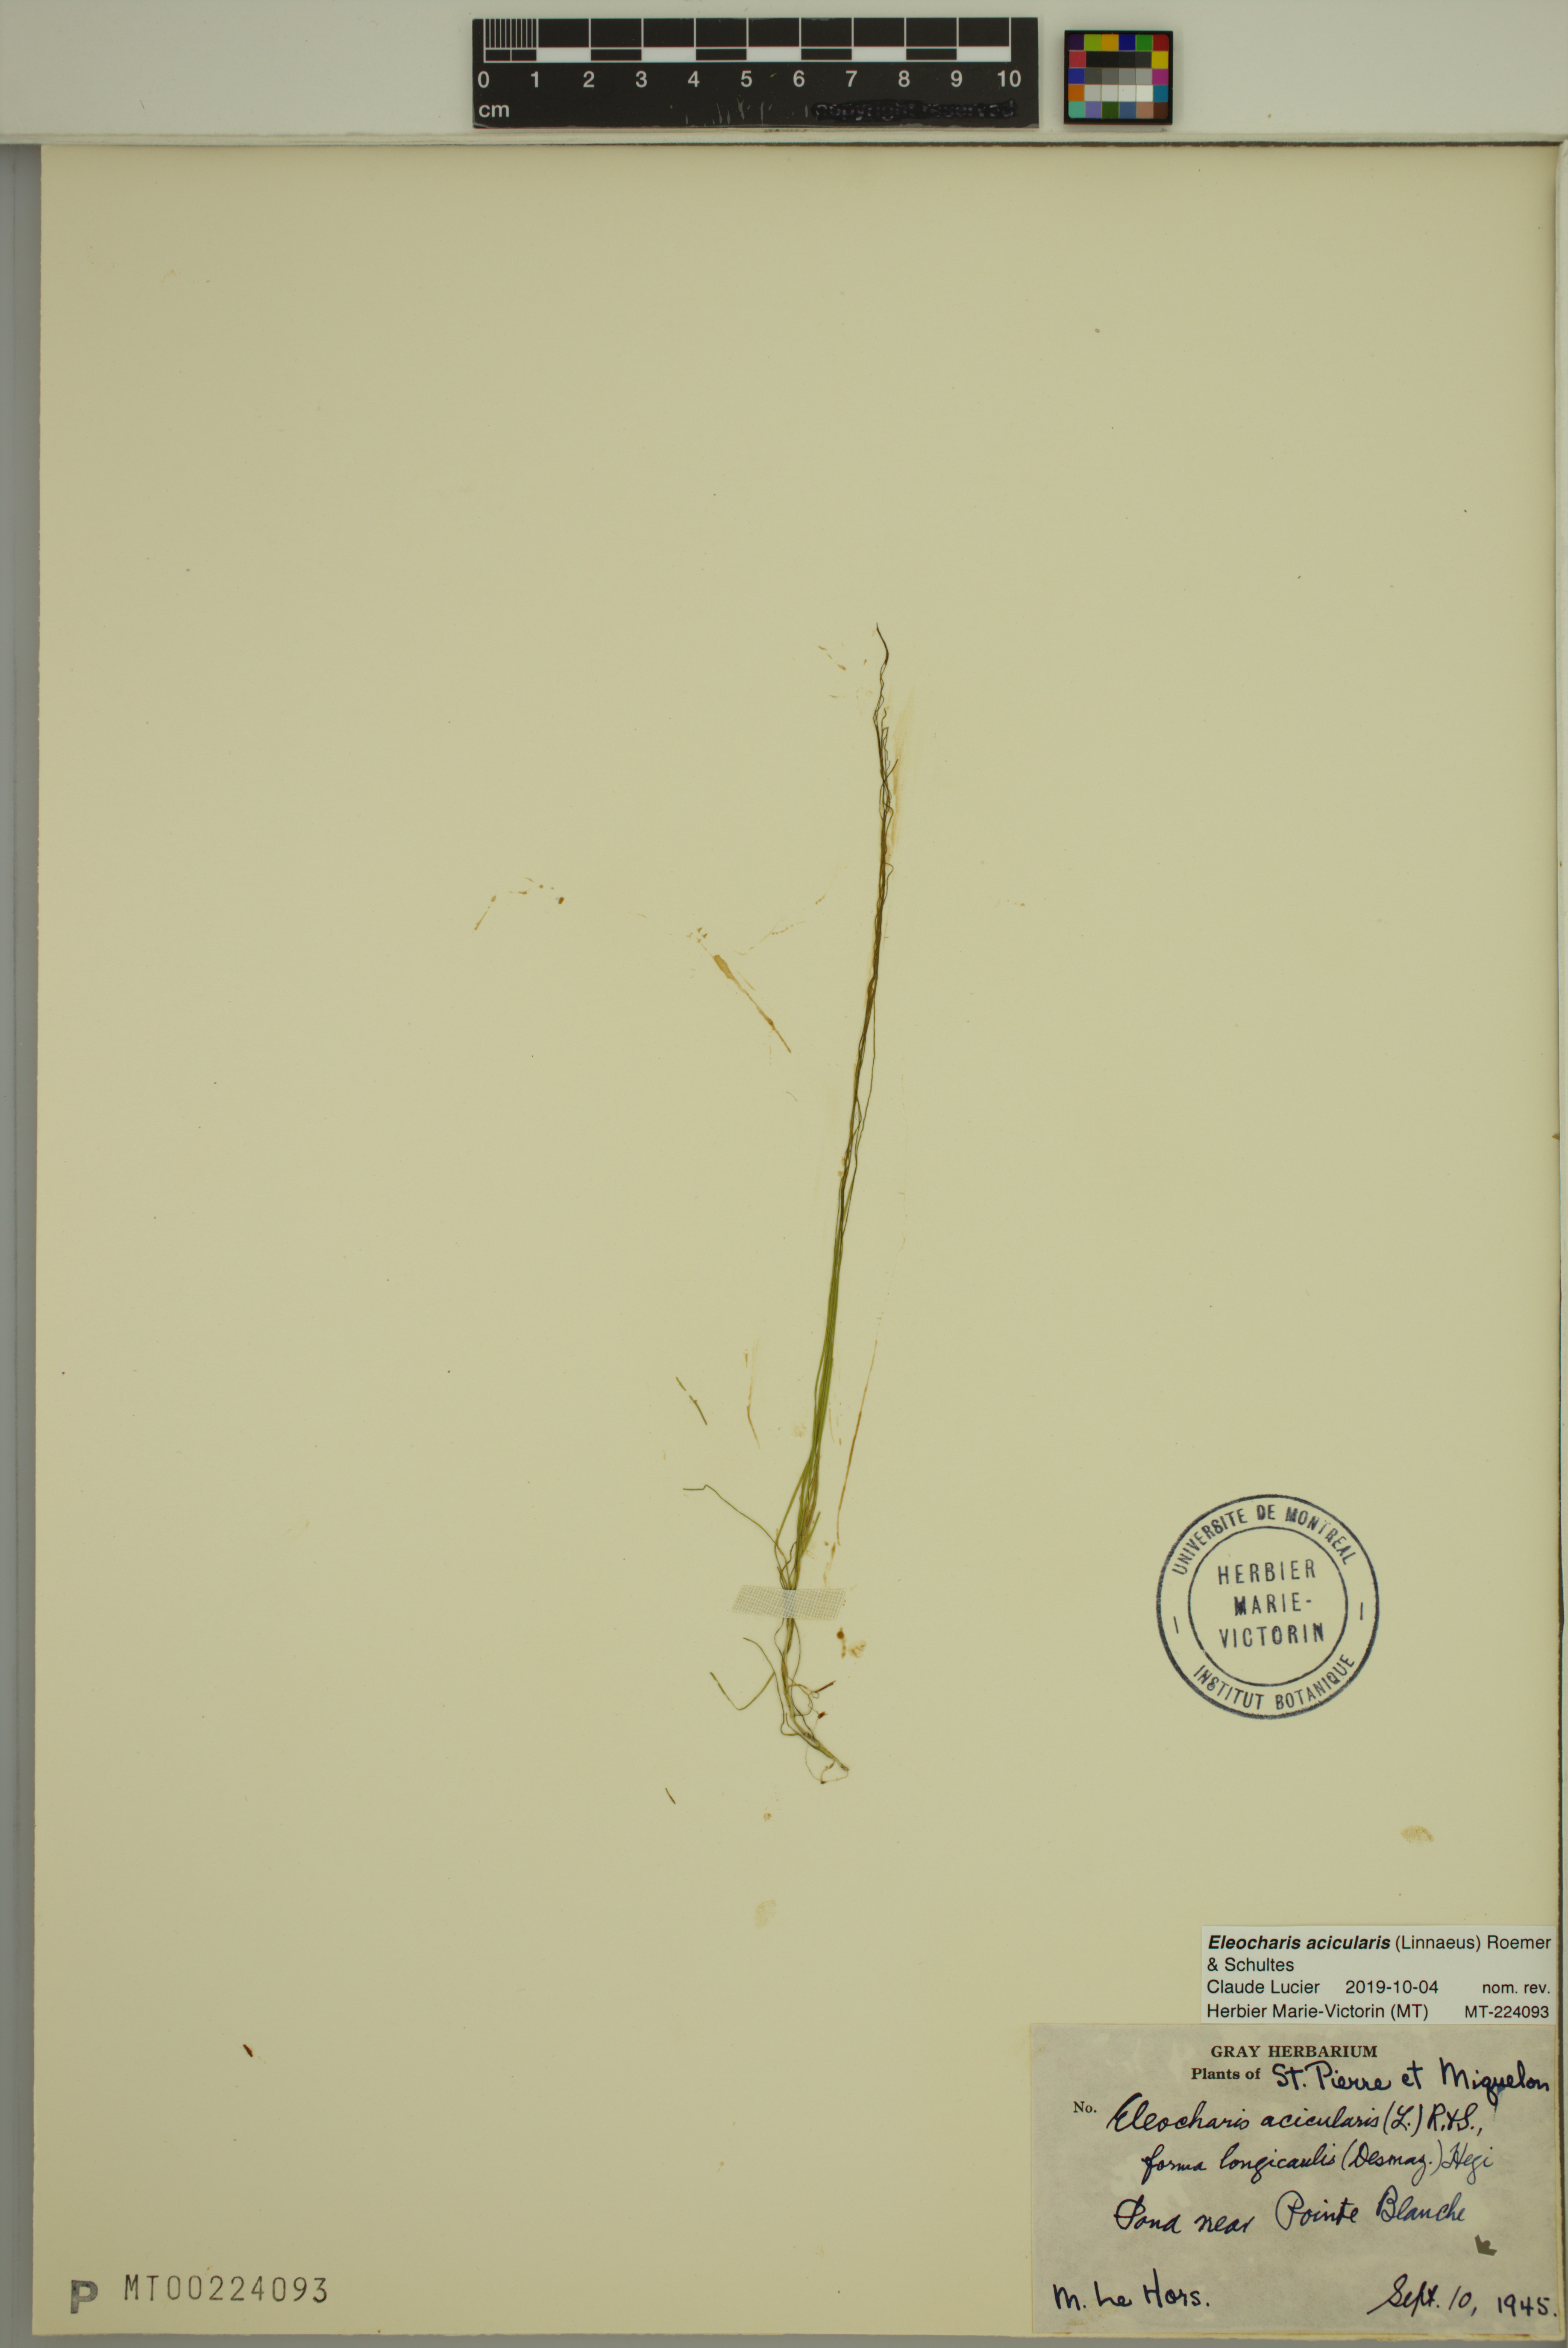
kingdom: Plantae
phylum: Tracheophyta
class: Liliopsida
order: Poales
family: Cyperaceae
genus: Eleocharis
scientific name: Eleocharis acicularis
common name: Needle spike-rush
